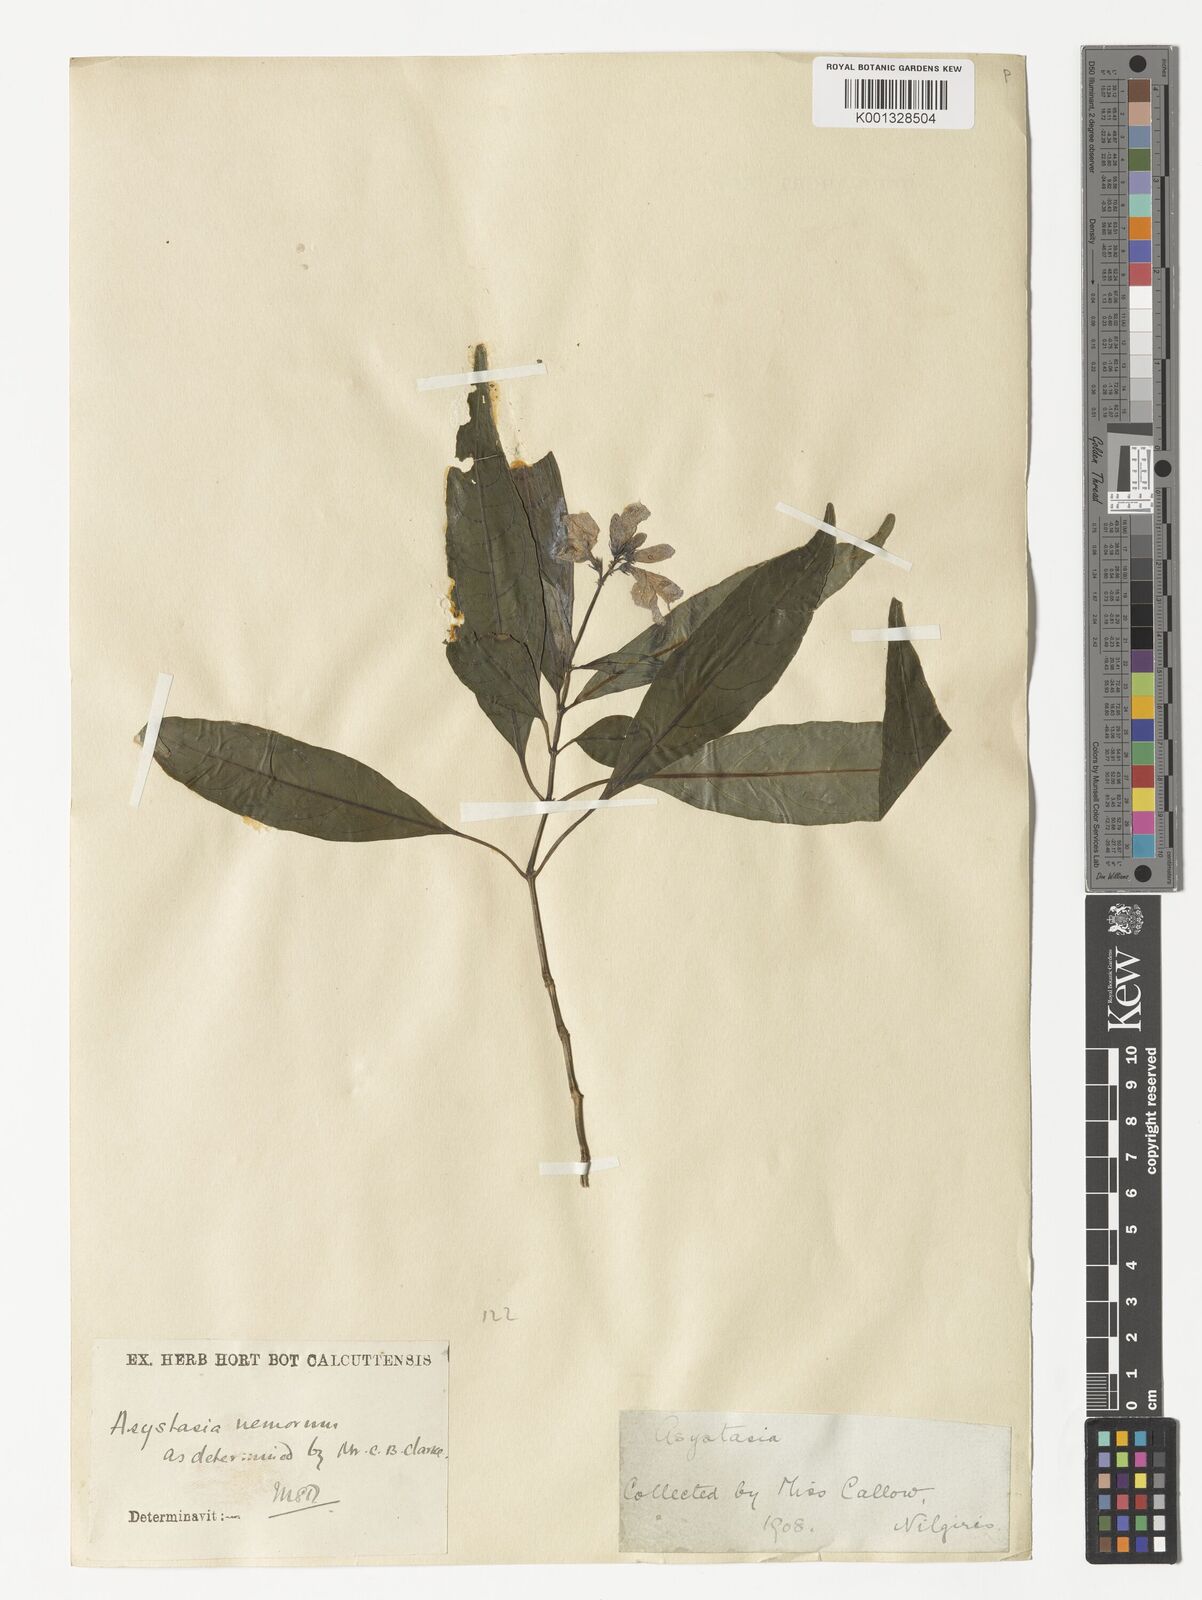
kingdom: Plantae
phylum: Tracheophyta
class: Magnoliopsida
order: Lamiales
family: Acanthaceae
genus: Asystasia
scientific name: Asystasia nemorum
